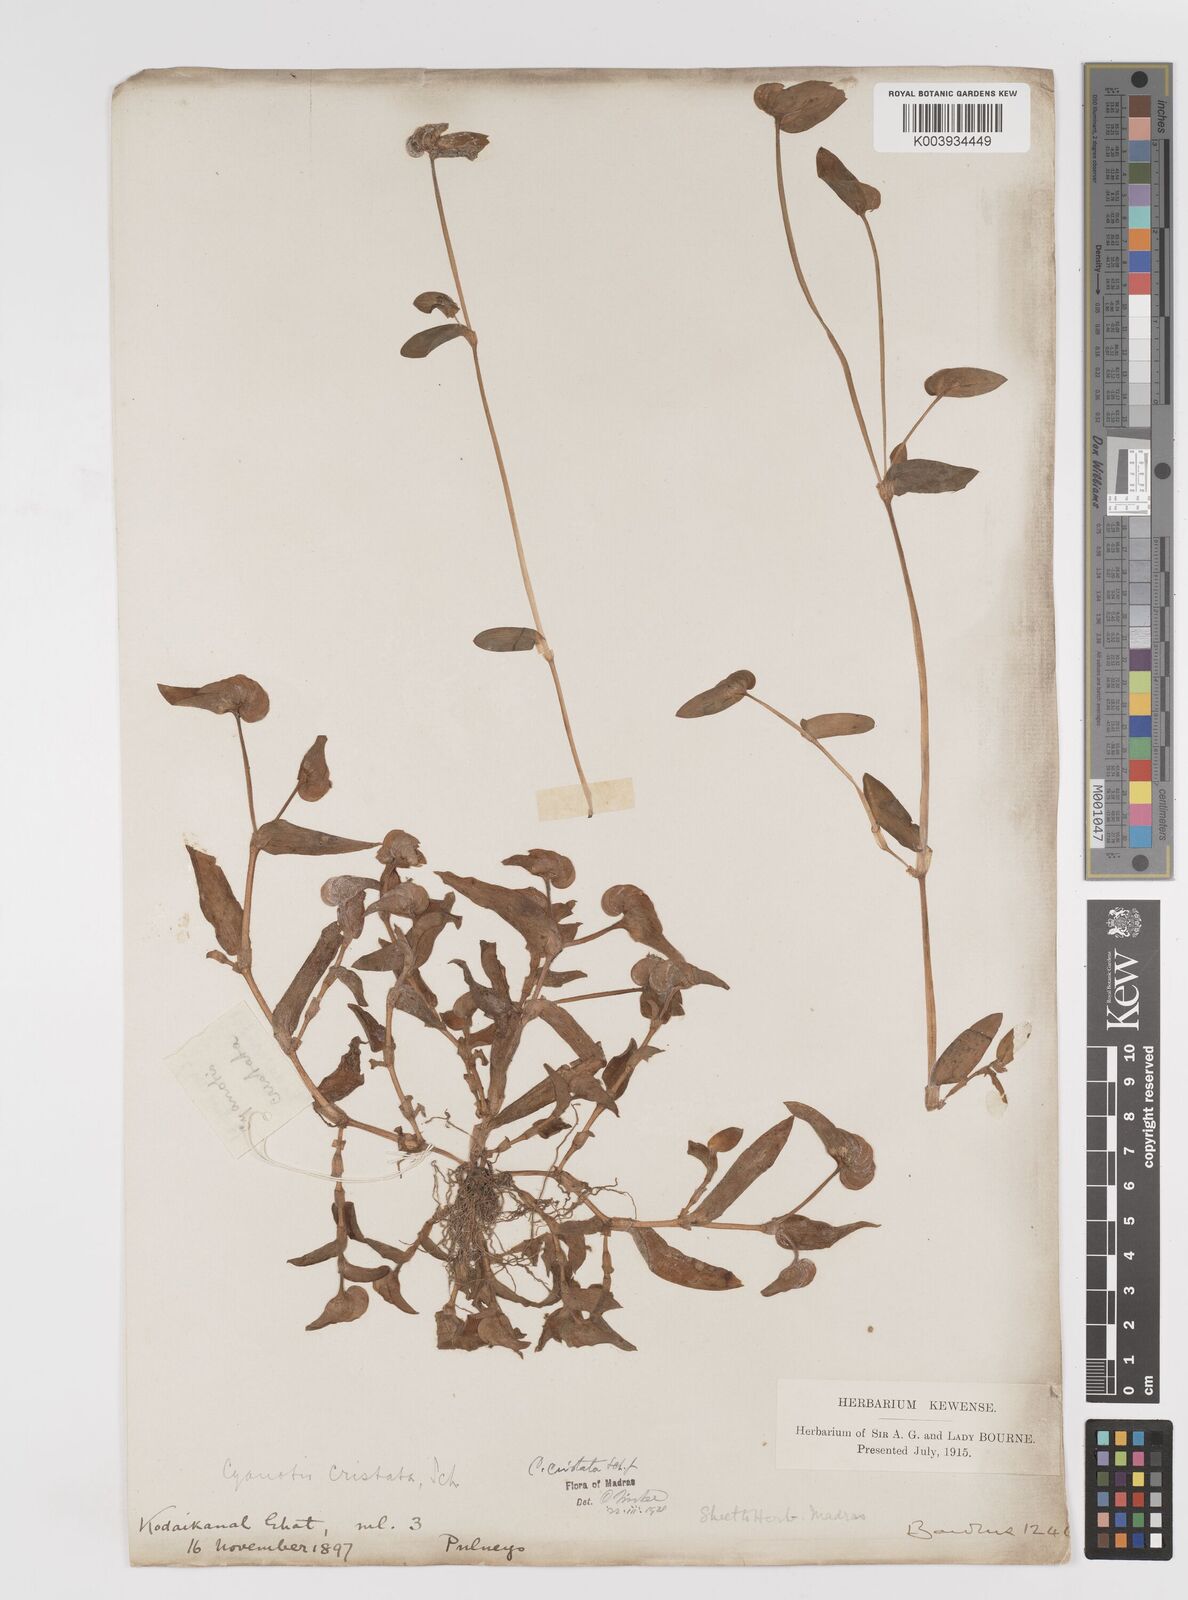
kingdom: Plantae
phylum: Tracheophyta
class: Liliopsida
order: Commelinales
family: Commelinaceae
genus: Cyanotis
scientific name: Cyanotis cristata
